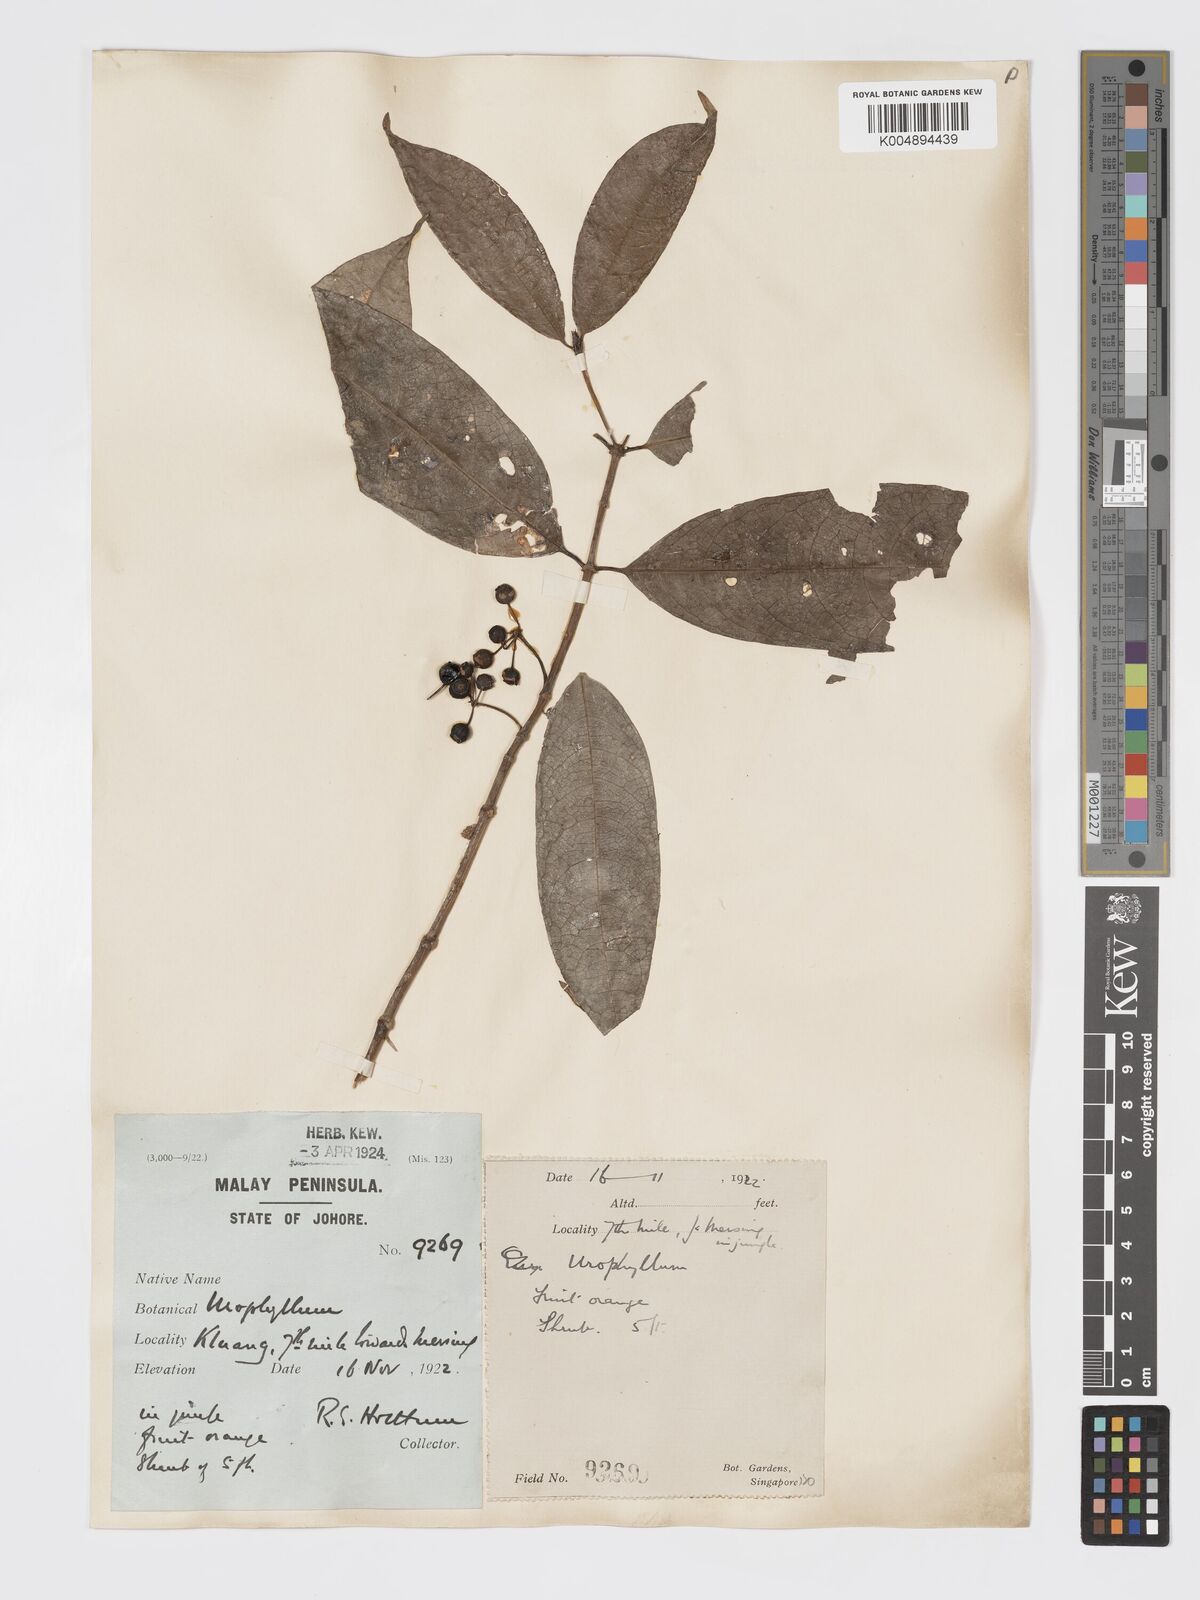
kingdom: Plantae
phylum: Tracheophyta
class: Magnoliopsida
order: Gentianales
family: Rubiaceae
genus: Urophyllum
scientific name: Urophyllum griffithianum
